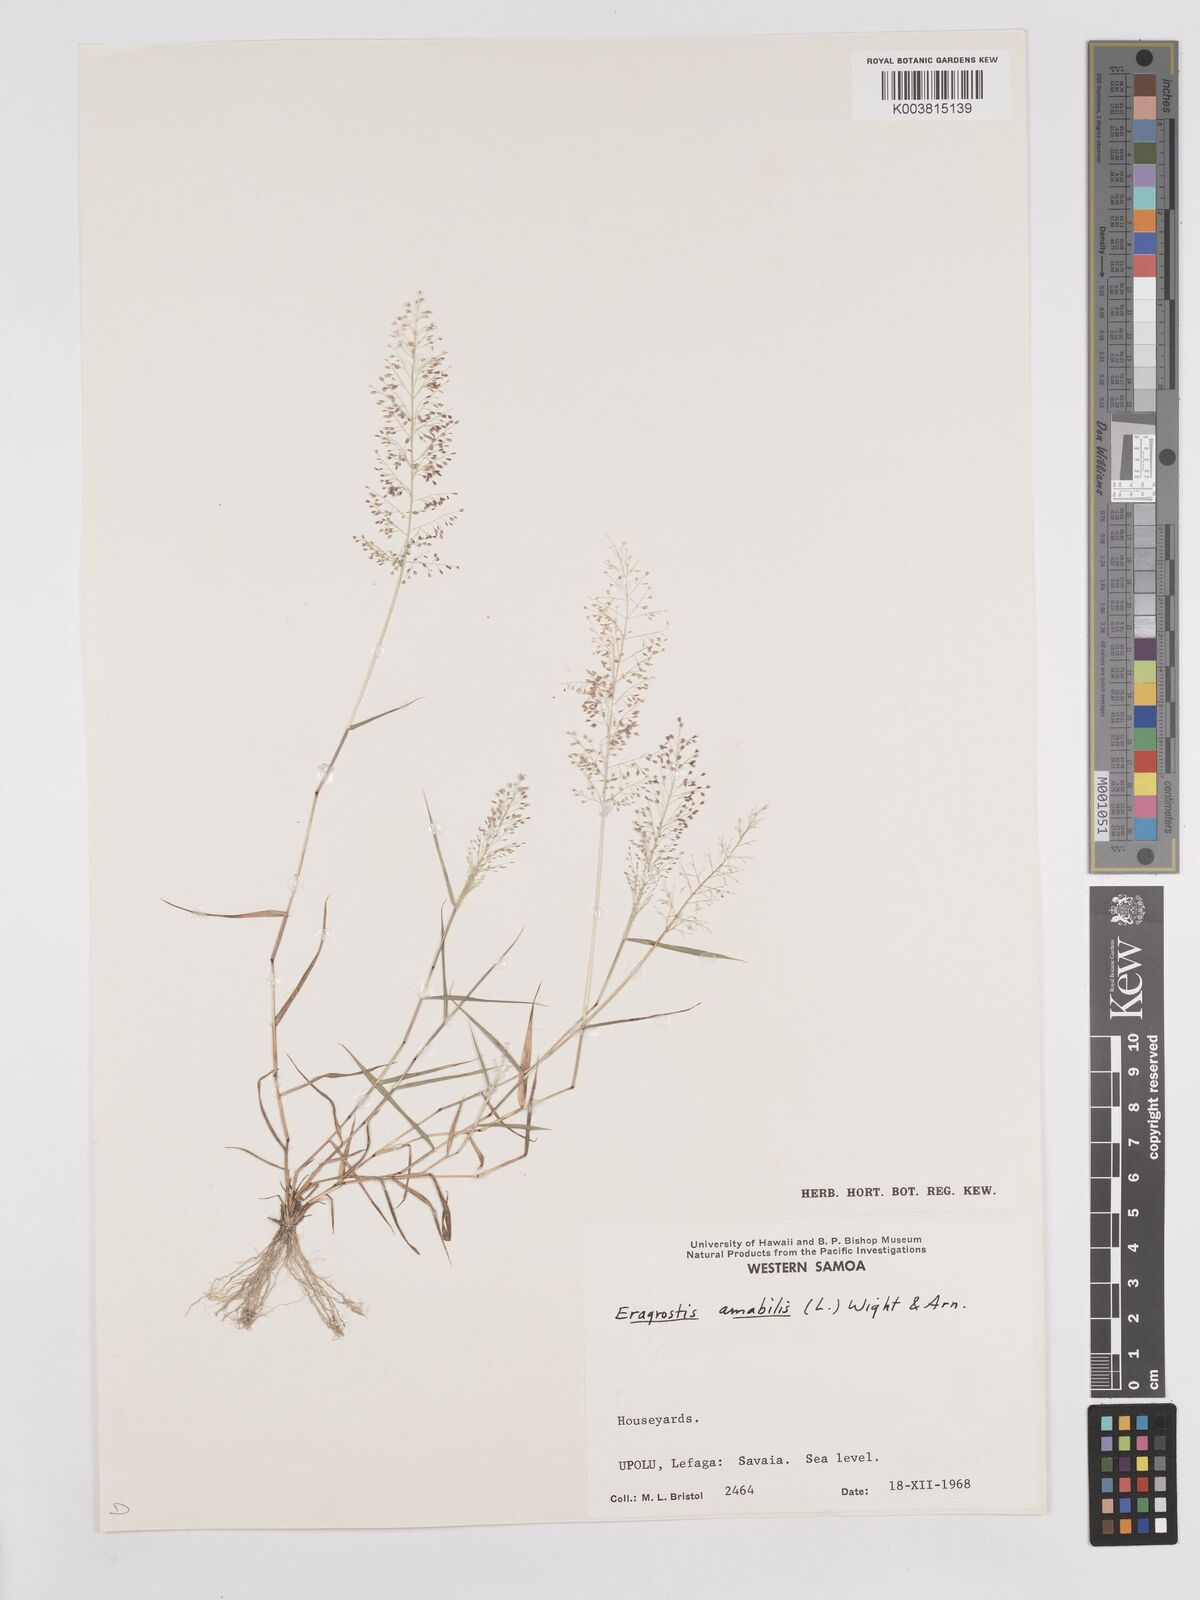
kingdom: Plantae
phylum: Tracheophyta
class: Liliopsida
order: Poales
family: Poaceae
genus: Eragrostis
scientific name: Eragrostis tenella
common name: Japanese lovegrass
